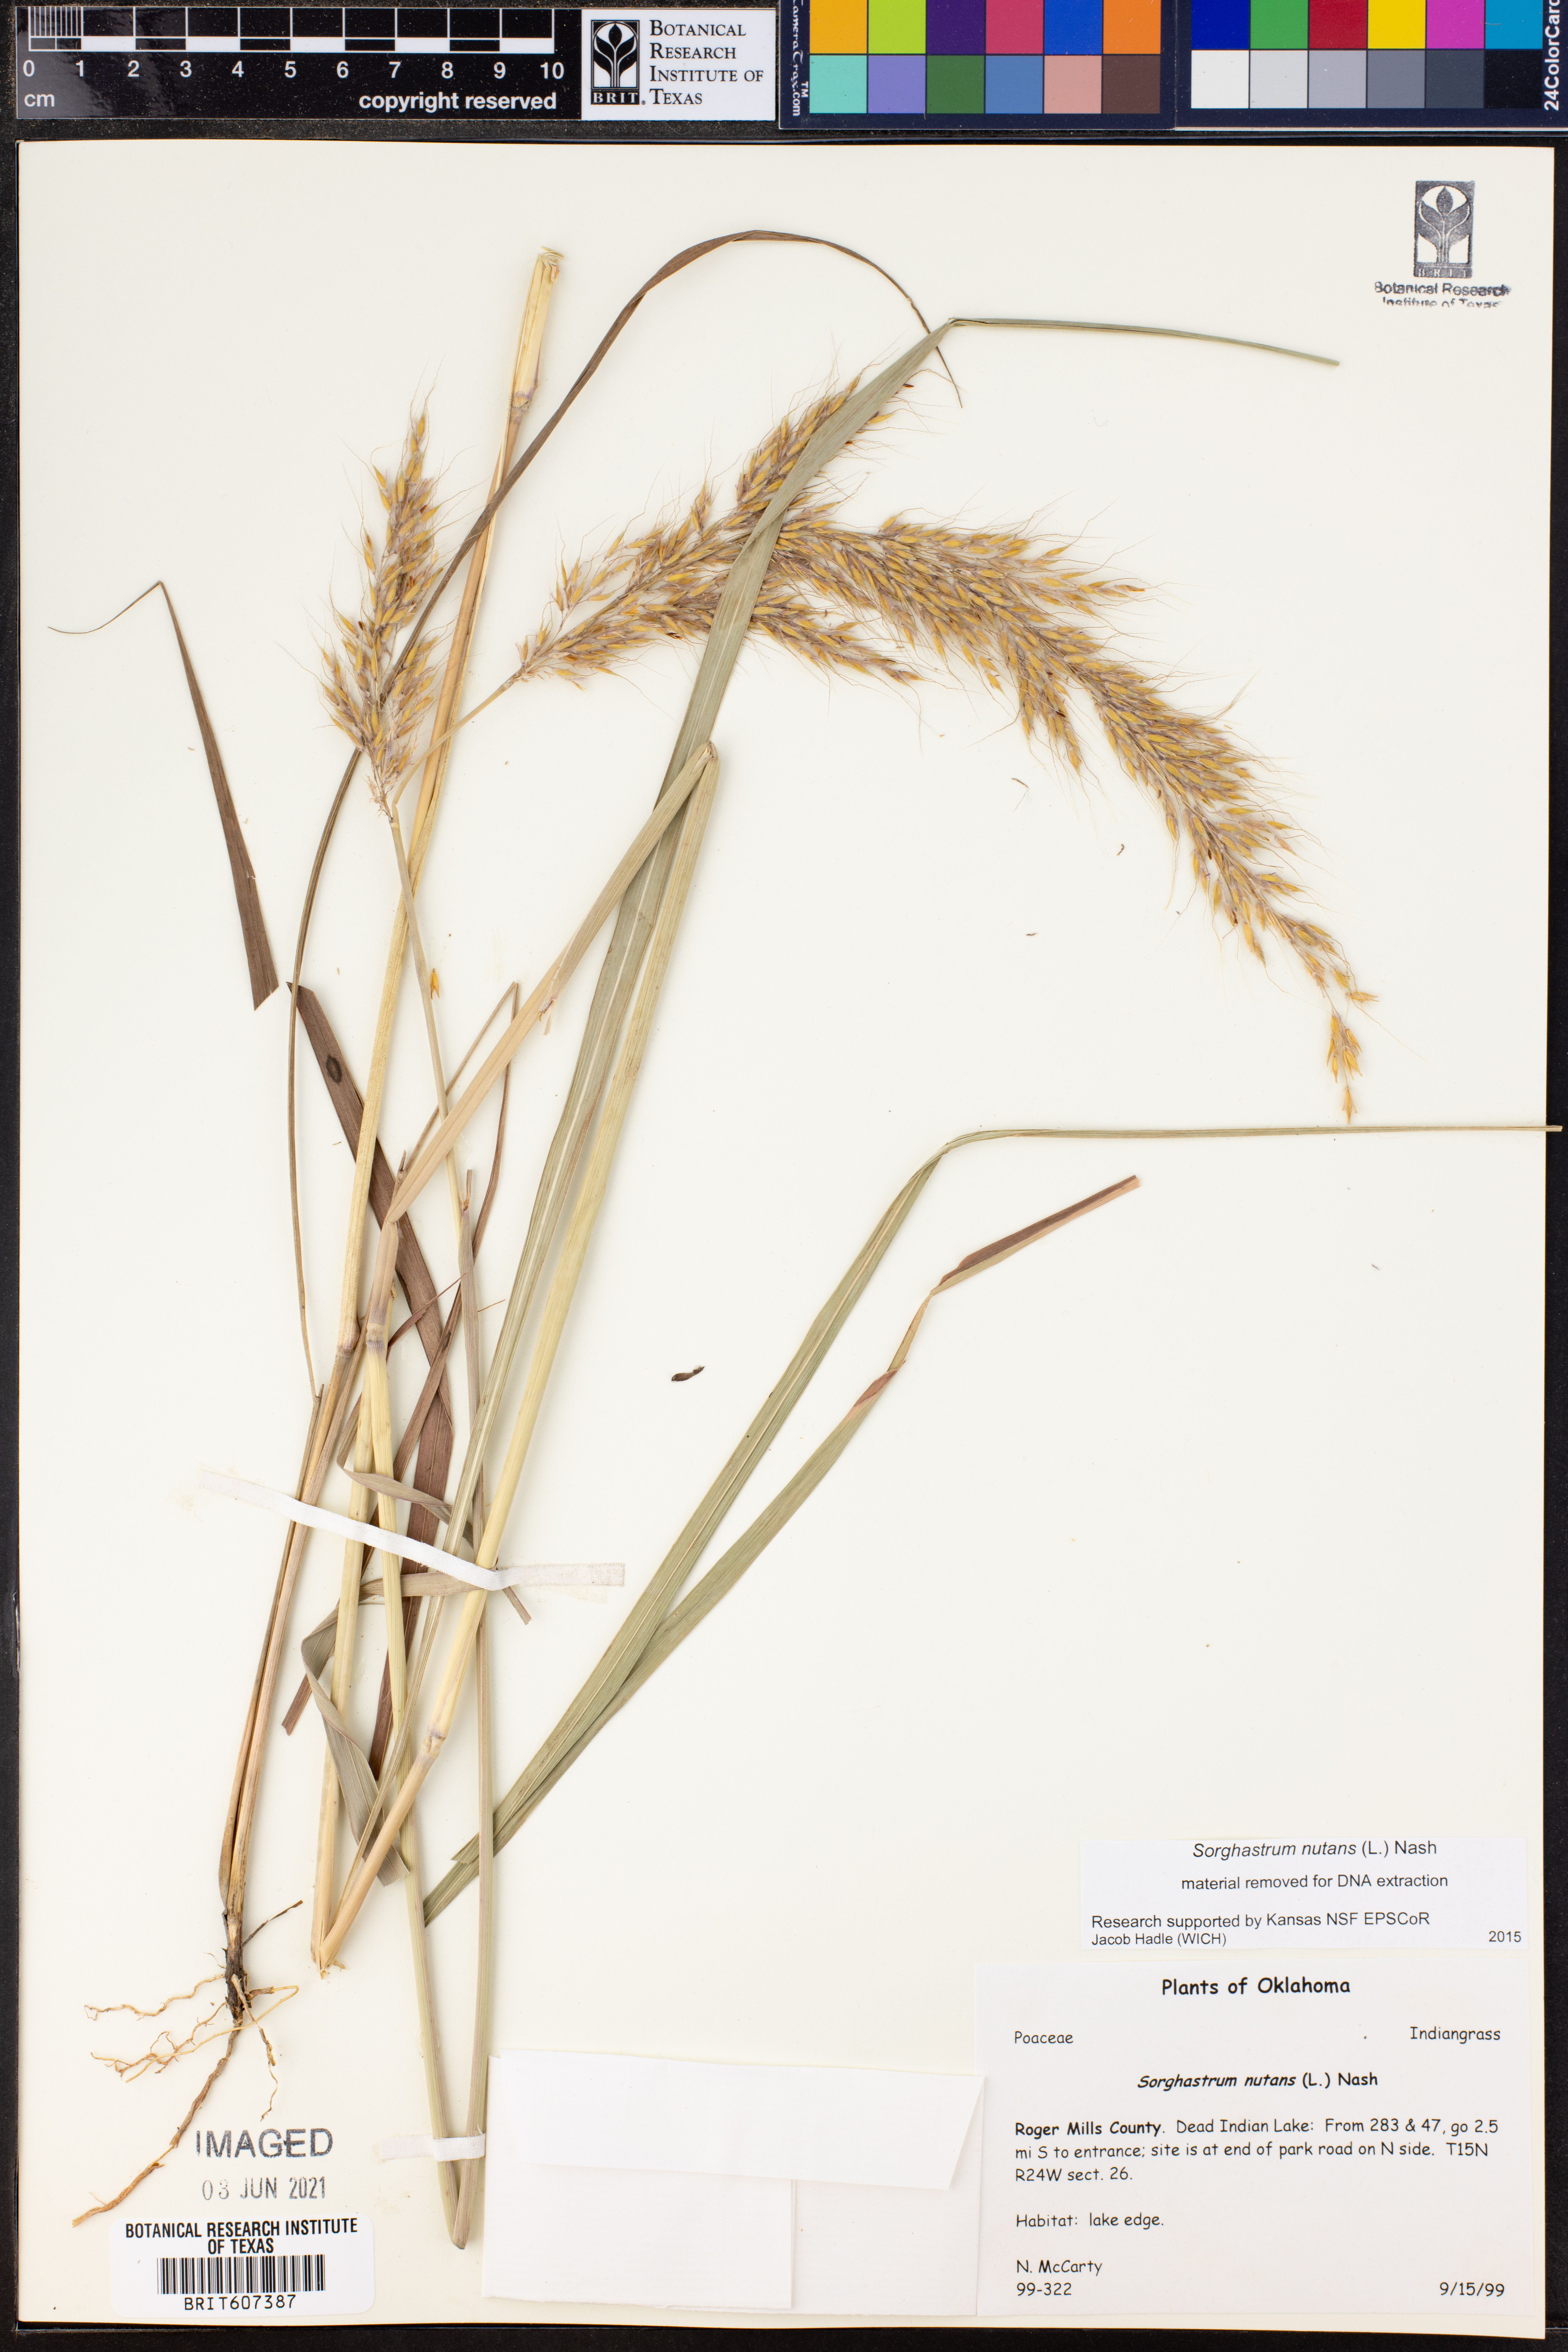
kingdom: Plantae
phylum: Tracheophyta
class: Liliopsida
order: Poales
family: Poaceae
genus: Sorghastrum
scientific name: Sorghastrum nutans
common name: Indian grass
